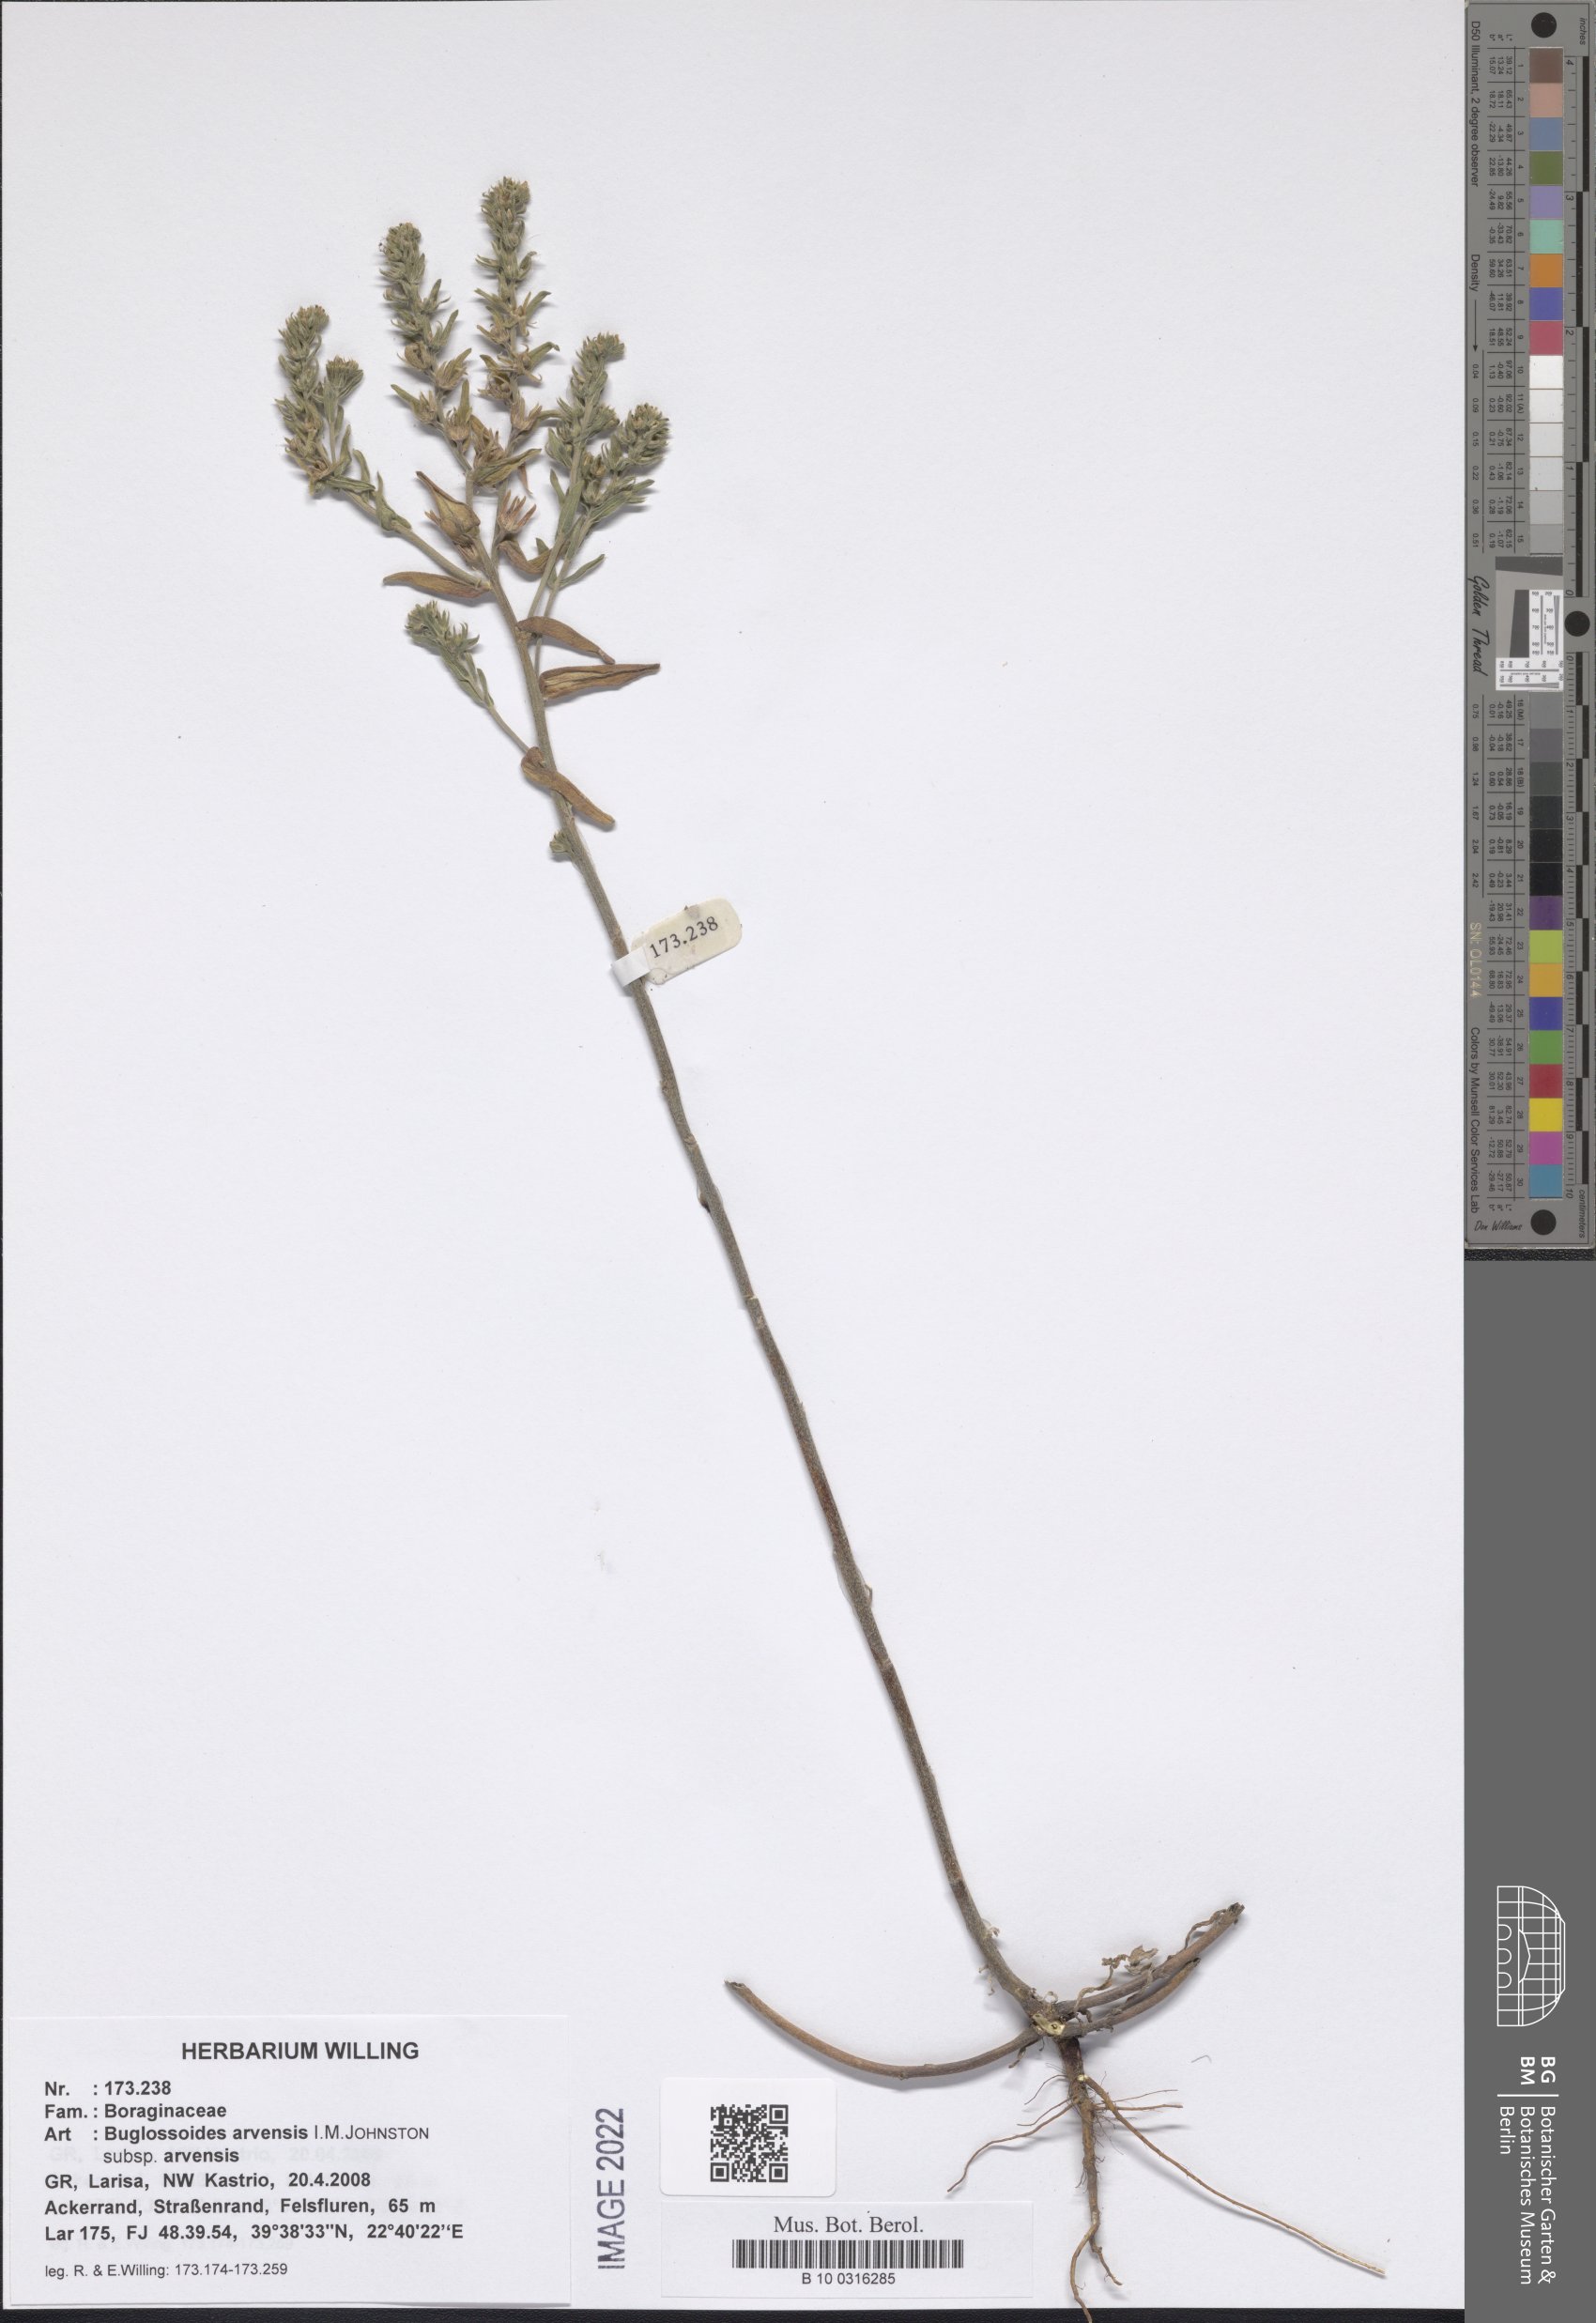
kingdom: Plantae
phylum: Tracheophyta
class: Magnoliopsida
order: Boraginales
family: Boraginaceae
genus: Buglossoides
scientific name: Buglossoides arvensis
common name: Corn gromwell
